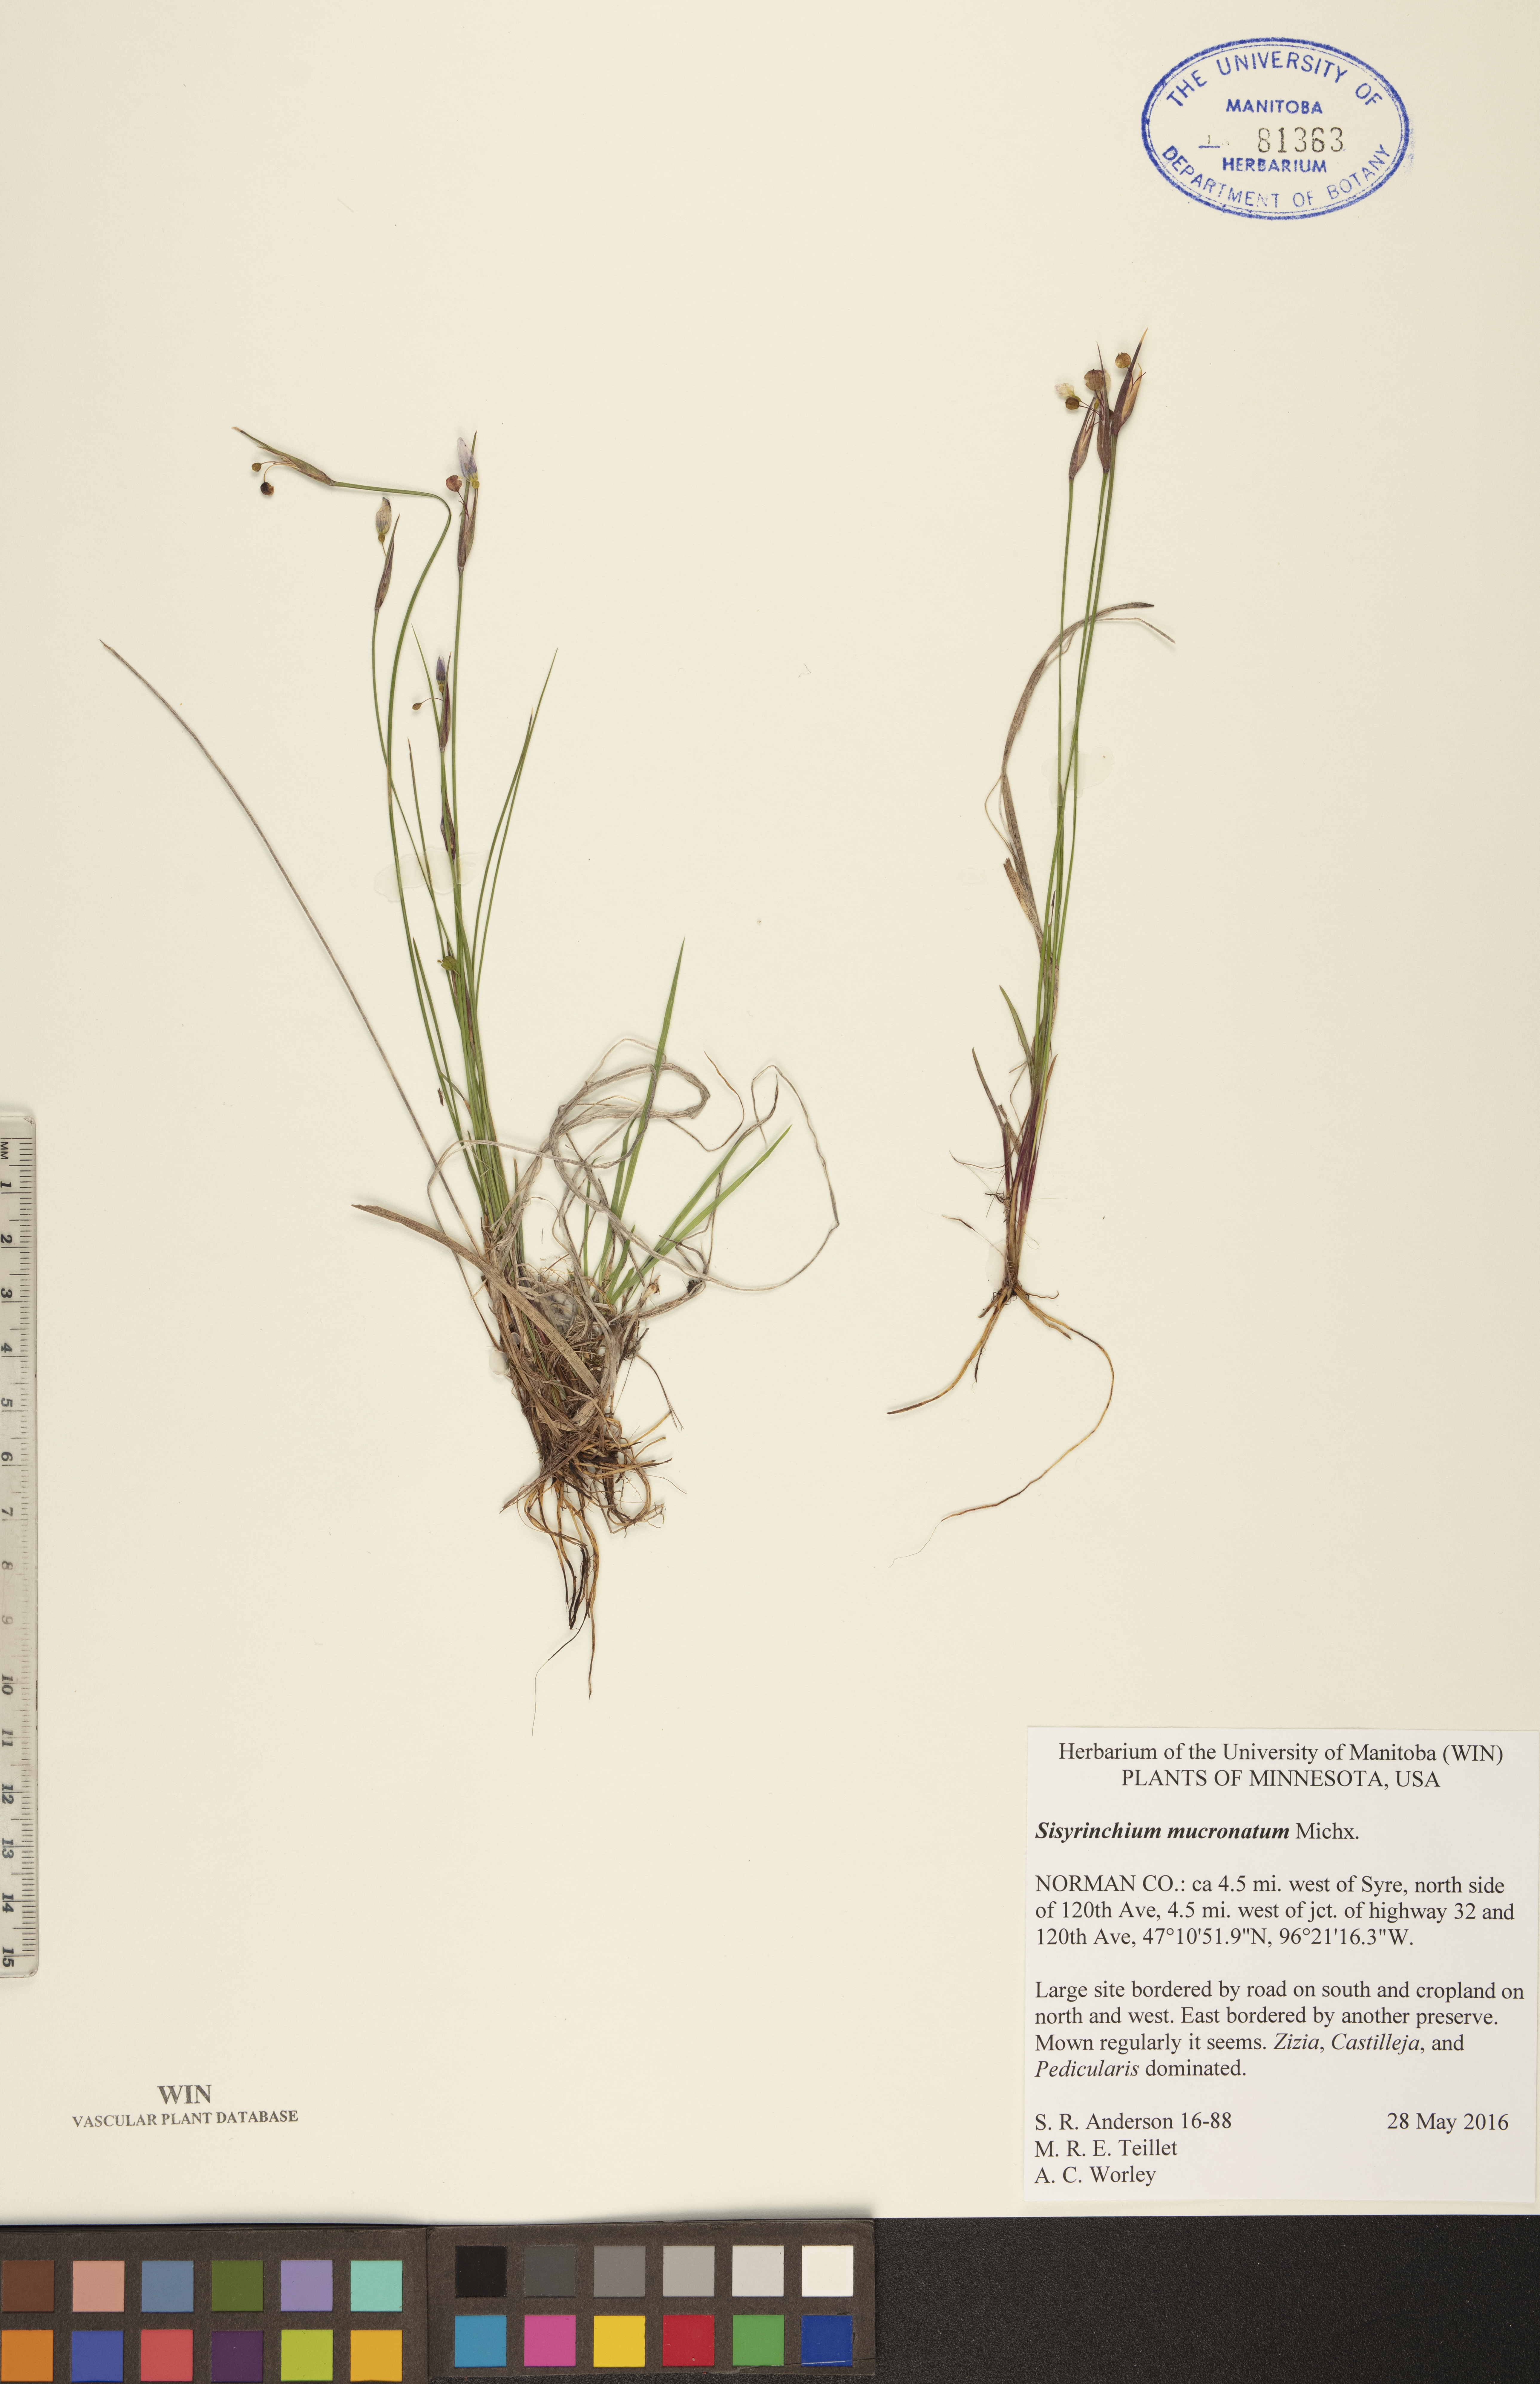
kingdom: Plantae
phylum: Tracheophyta
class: Liliopsida
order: Asparagales
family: Iridaceae
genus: Sisyrinchium
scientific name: Sisyrinchium mucronatum
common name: Eastern blue-eyed-grass
